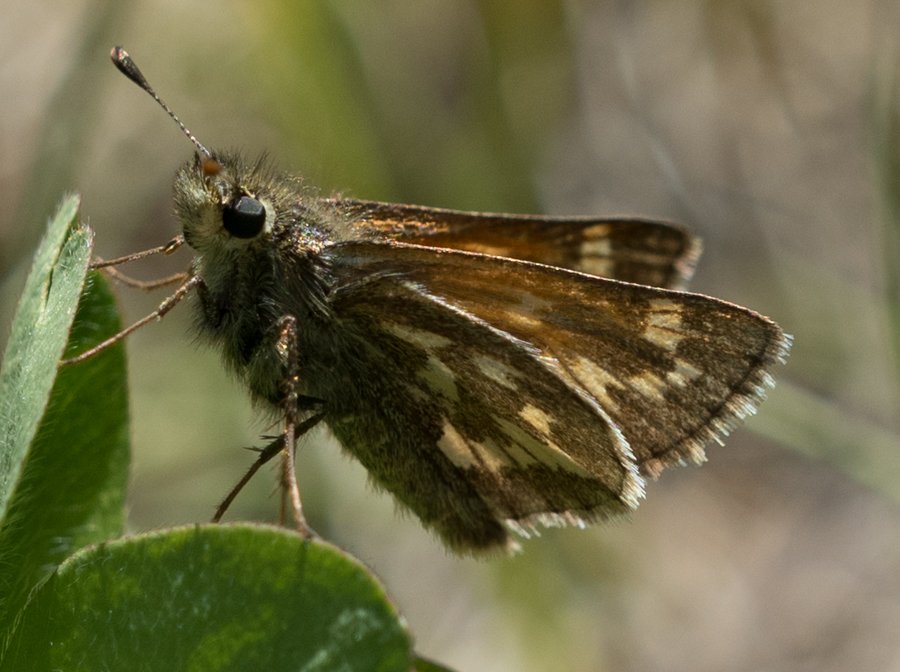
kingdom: Animalia
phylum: Arthropoda
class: Insecta
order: Lepidoptera
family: Hesperiidae
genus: Polites
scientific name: Polites sabuleti
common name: Draco Skipper
